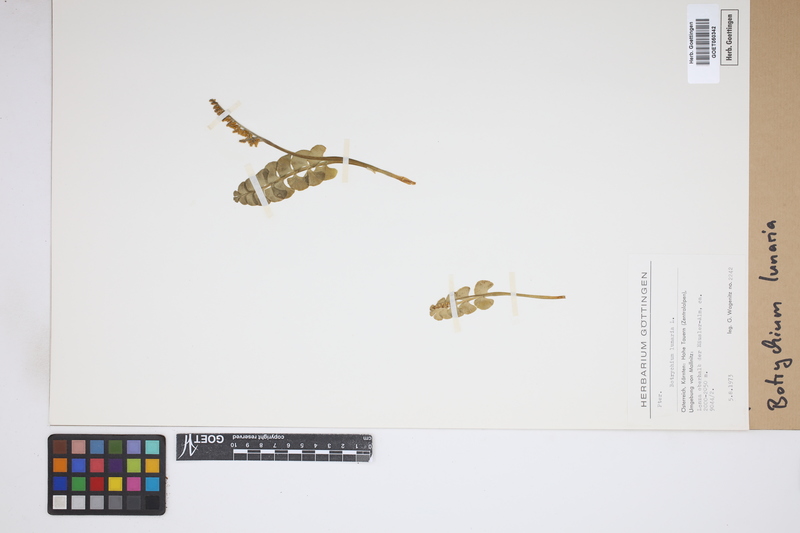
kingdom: Plantae
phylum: Tracheophyta
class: Polypodiopsida
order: Ophioglossales
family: Ophioglossaceae
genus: Botrychium
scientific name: Botrychium lunaria
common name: Moonwort
